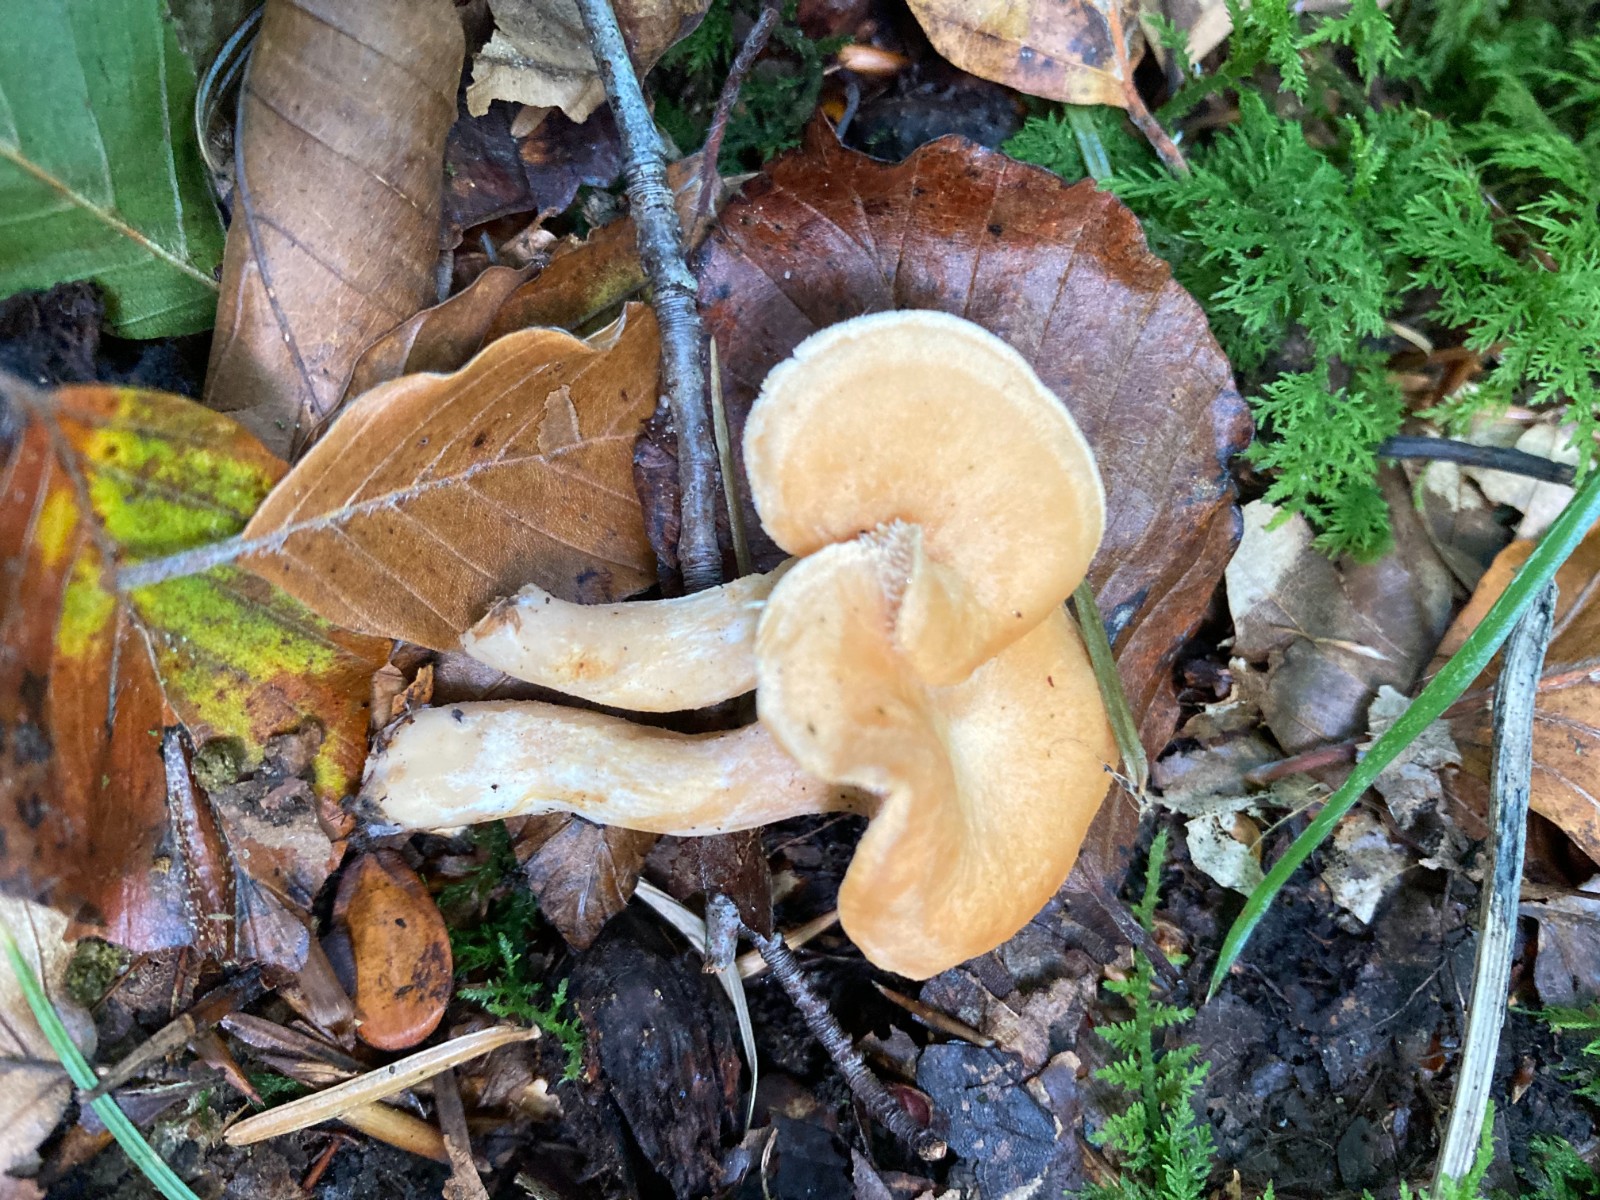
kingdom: Fungi
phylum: Basidiomycota
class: Agaricomycetes
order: Cantharellales
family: Hydnaceae
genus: Hydnum
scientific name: Hydnum
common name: pigsvamp
